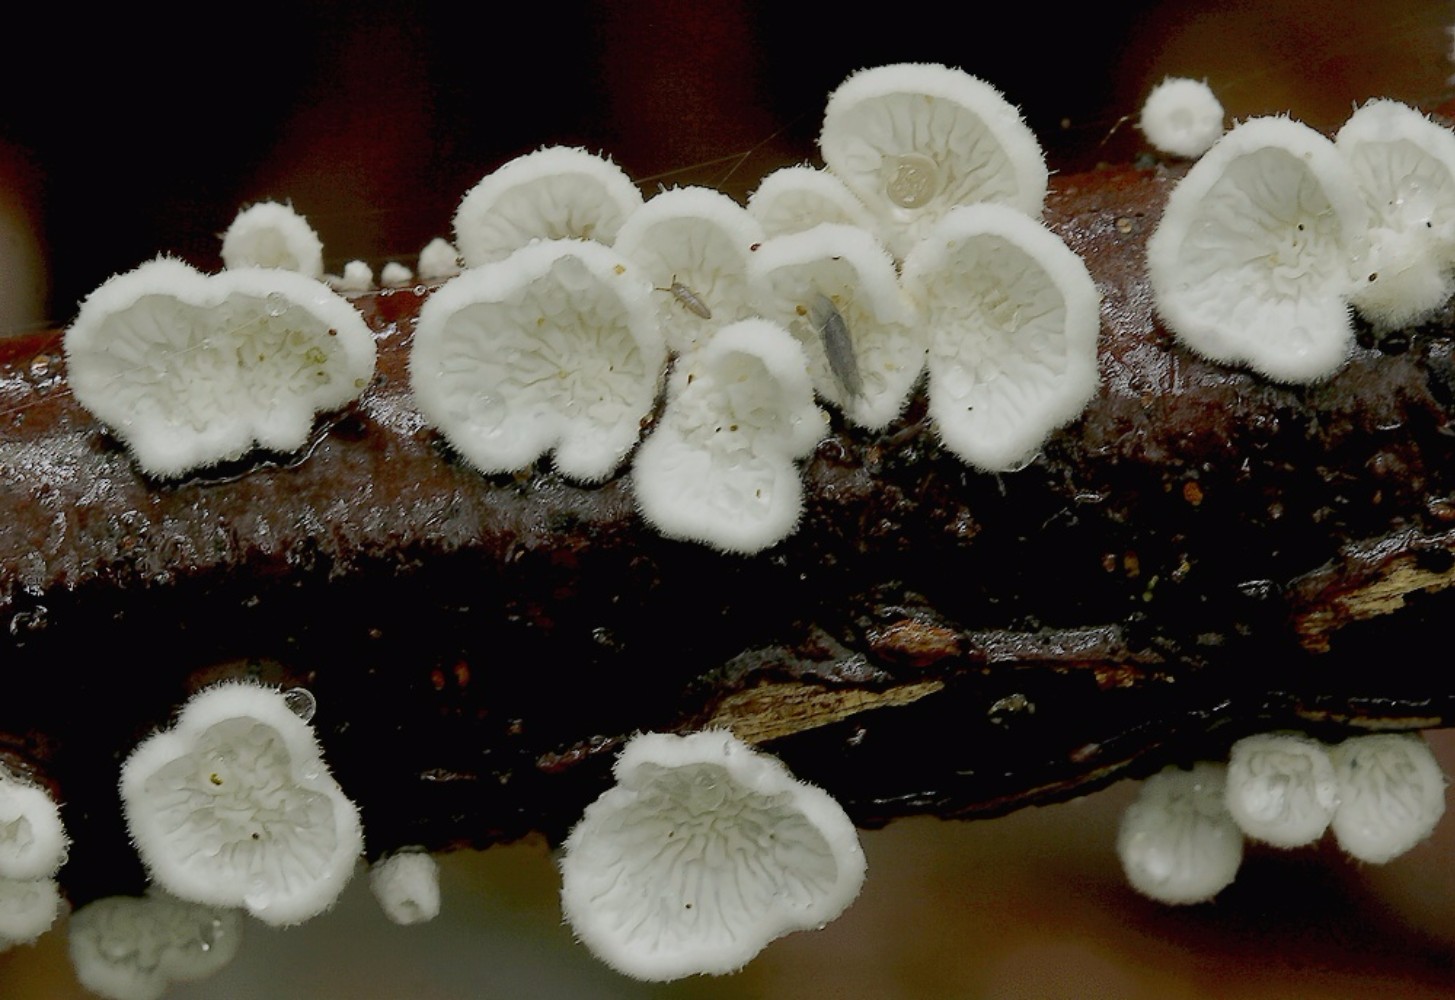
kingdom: Fungi
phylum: Basidiomycota
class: Agaricomycetes
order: Amylocorticiales
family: Amylocorticiaceae
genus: Plicaturopsis
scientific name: Plicaturopsis crispa
